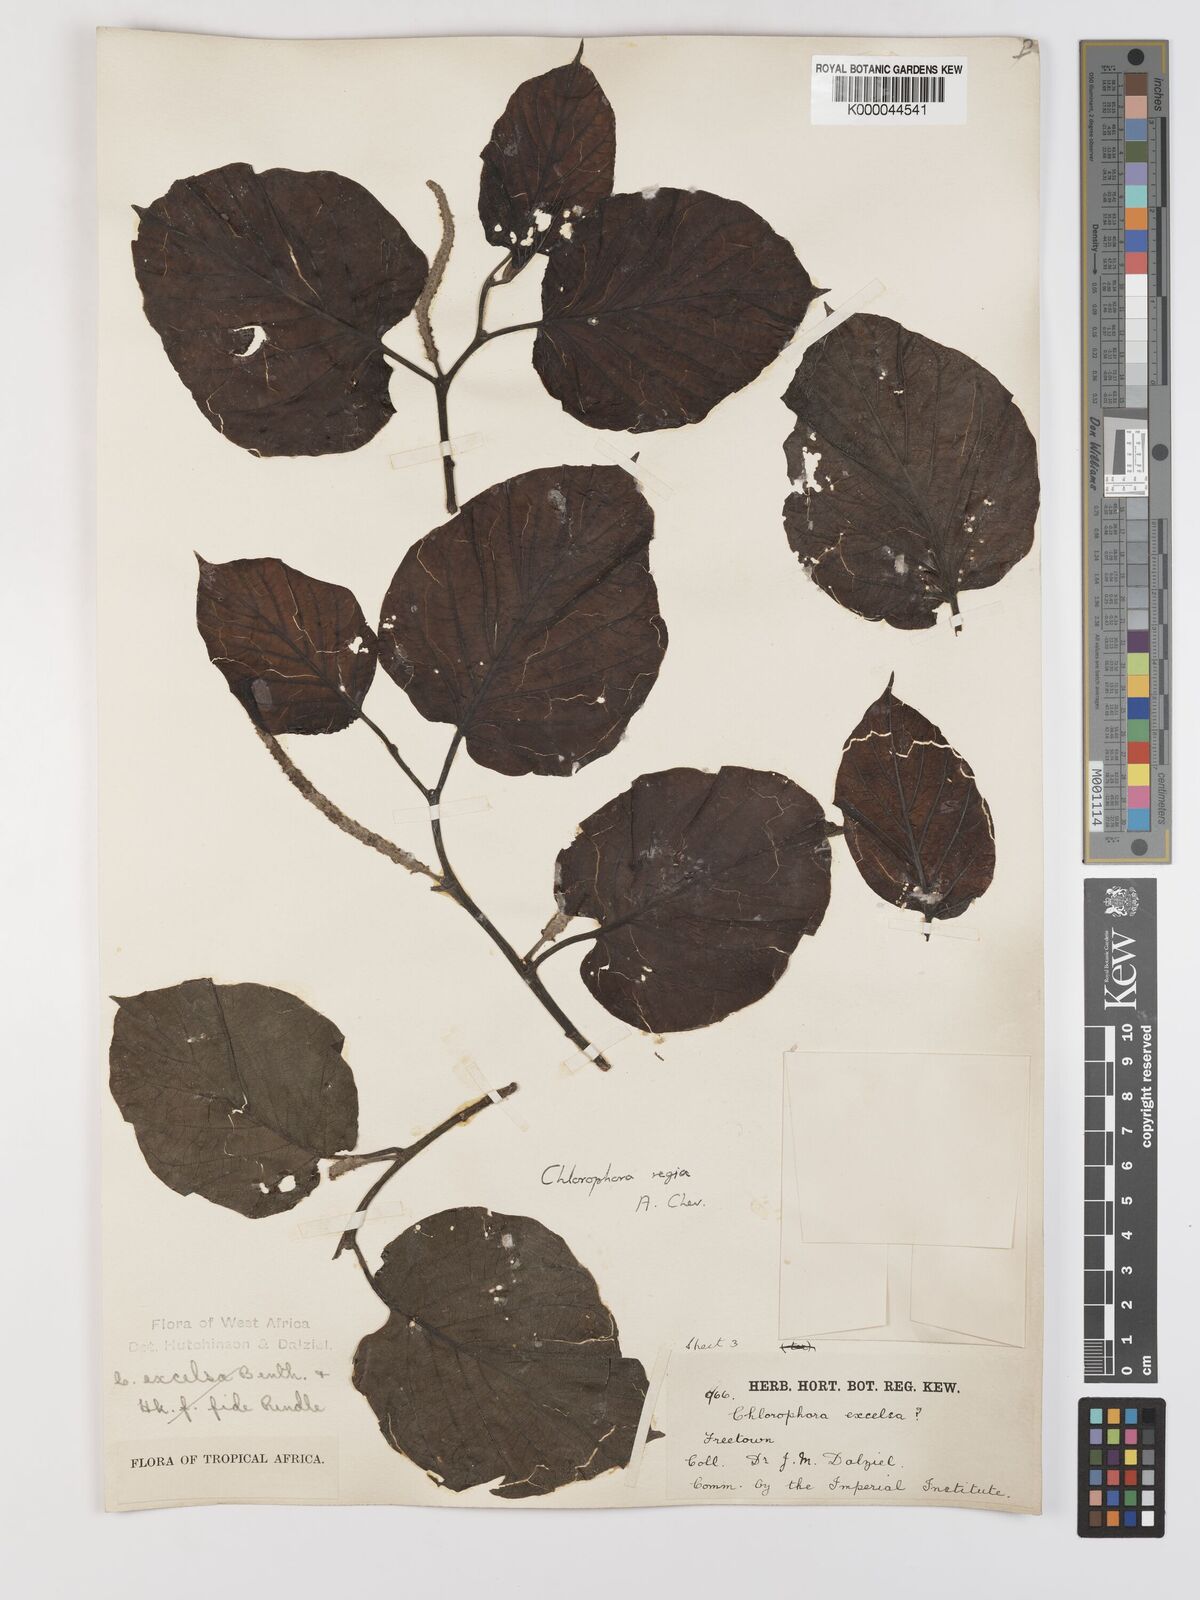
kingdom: Plantae
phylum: Tracheophyta
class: Magnoliopsida
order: Rosales
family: Moraceae
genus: Milicia
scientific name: Milicia regia
